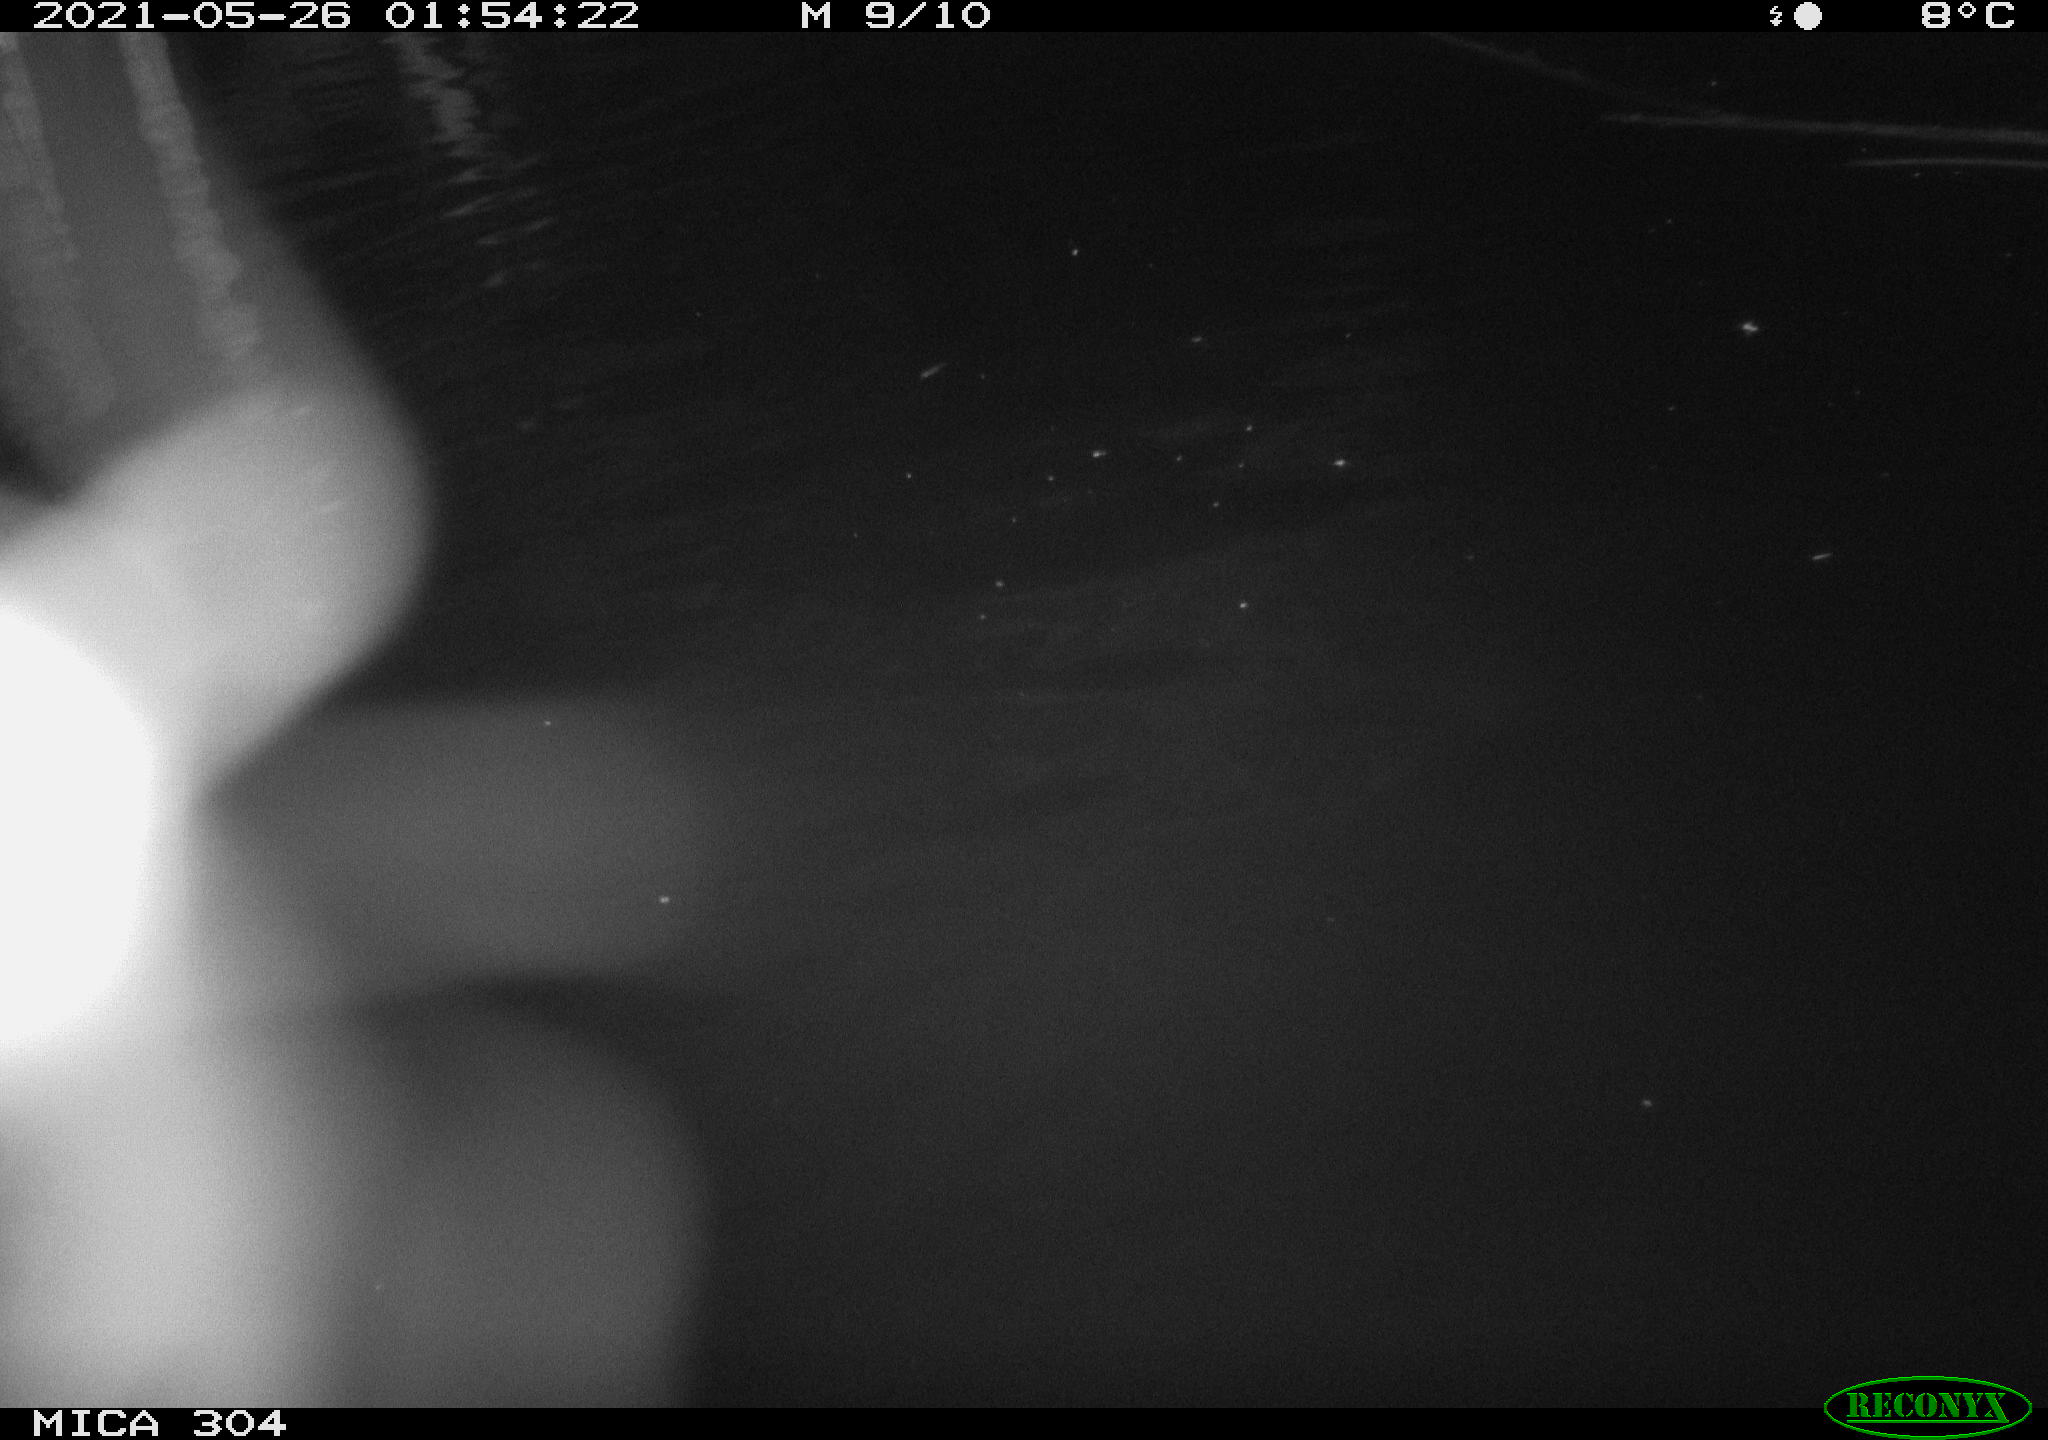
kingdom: Animalia
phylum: Chordata
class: Aves
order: Anseriformes
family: Anatidae
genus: Anas
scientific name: Anas platyrhynchos
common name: Mallard
